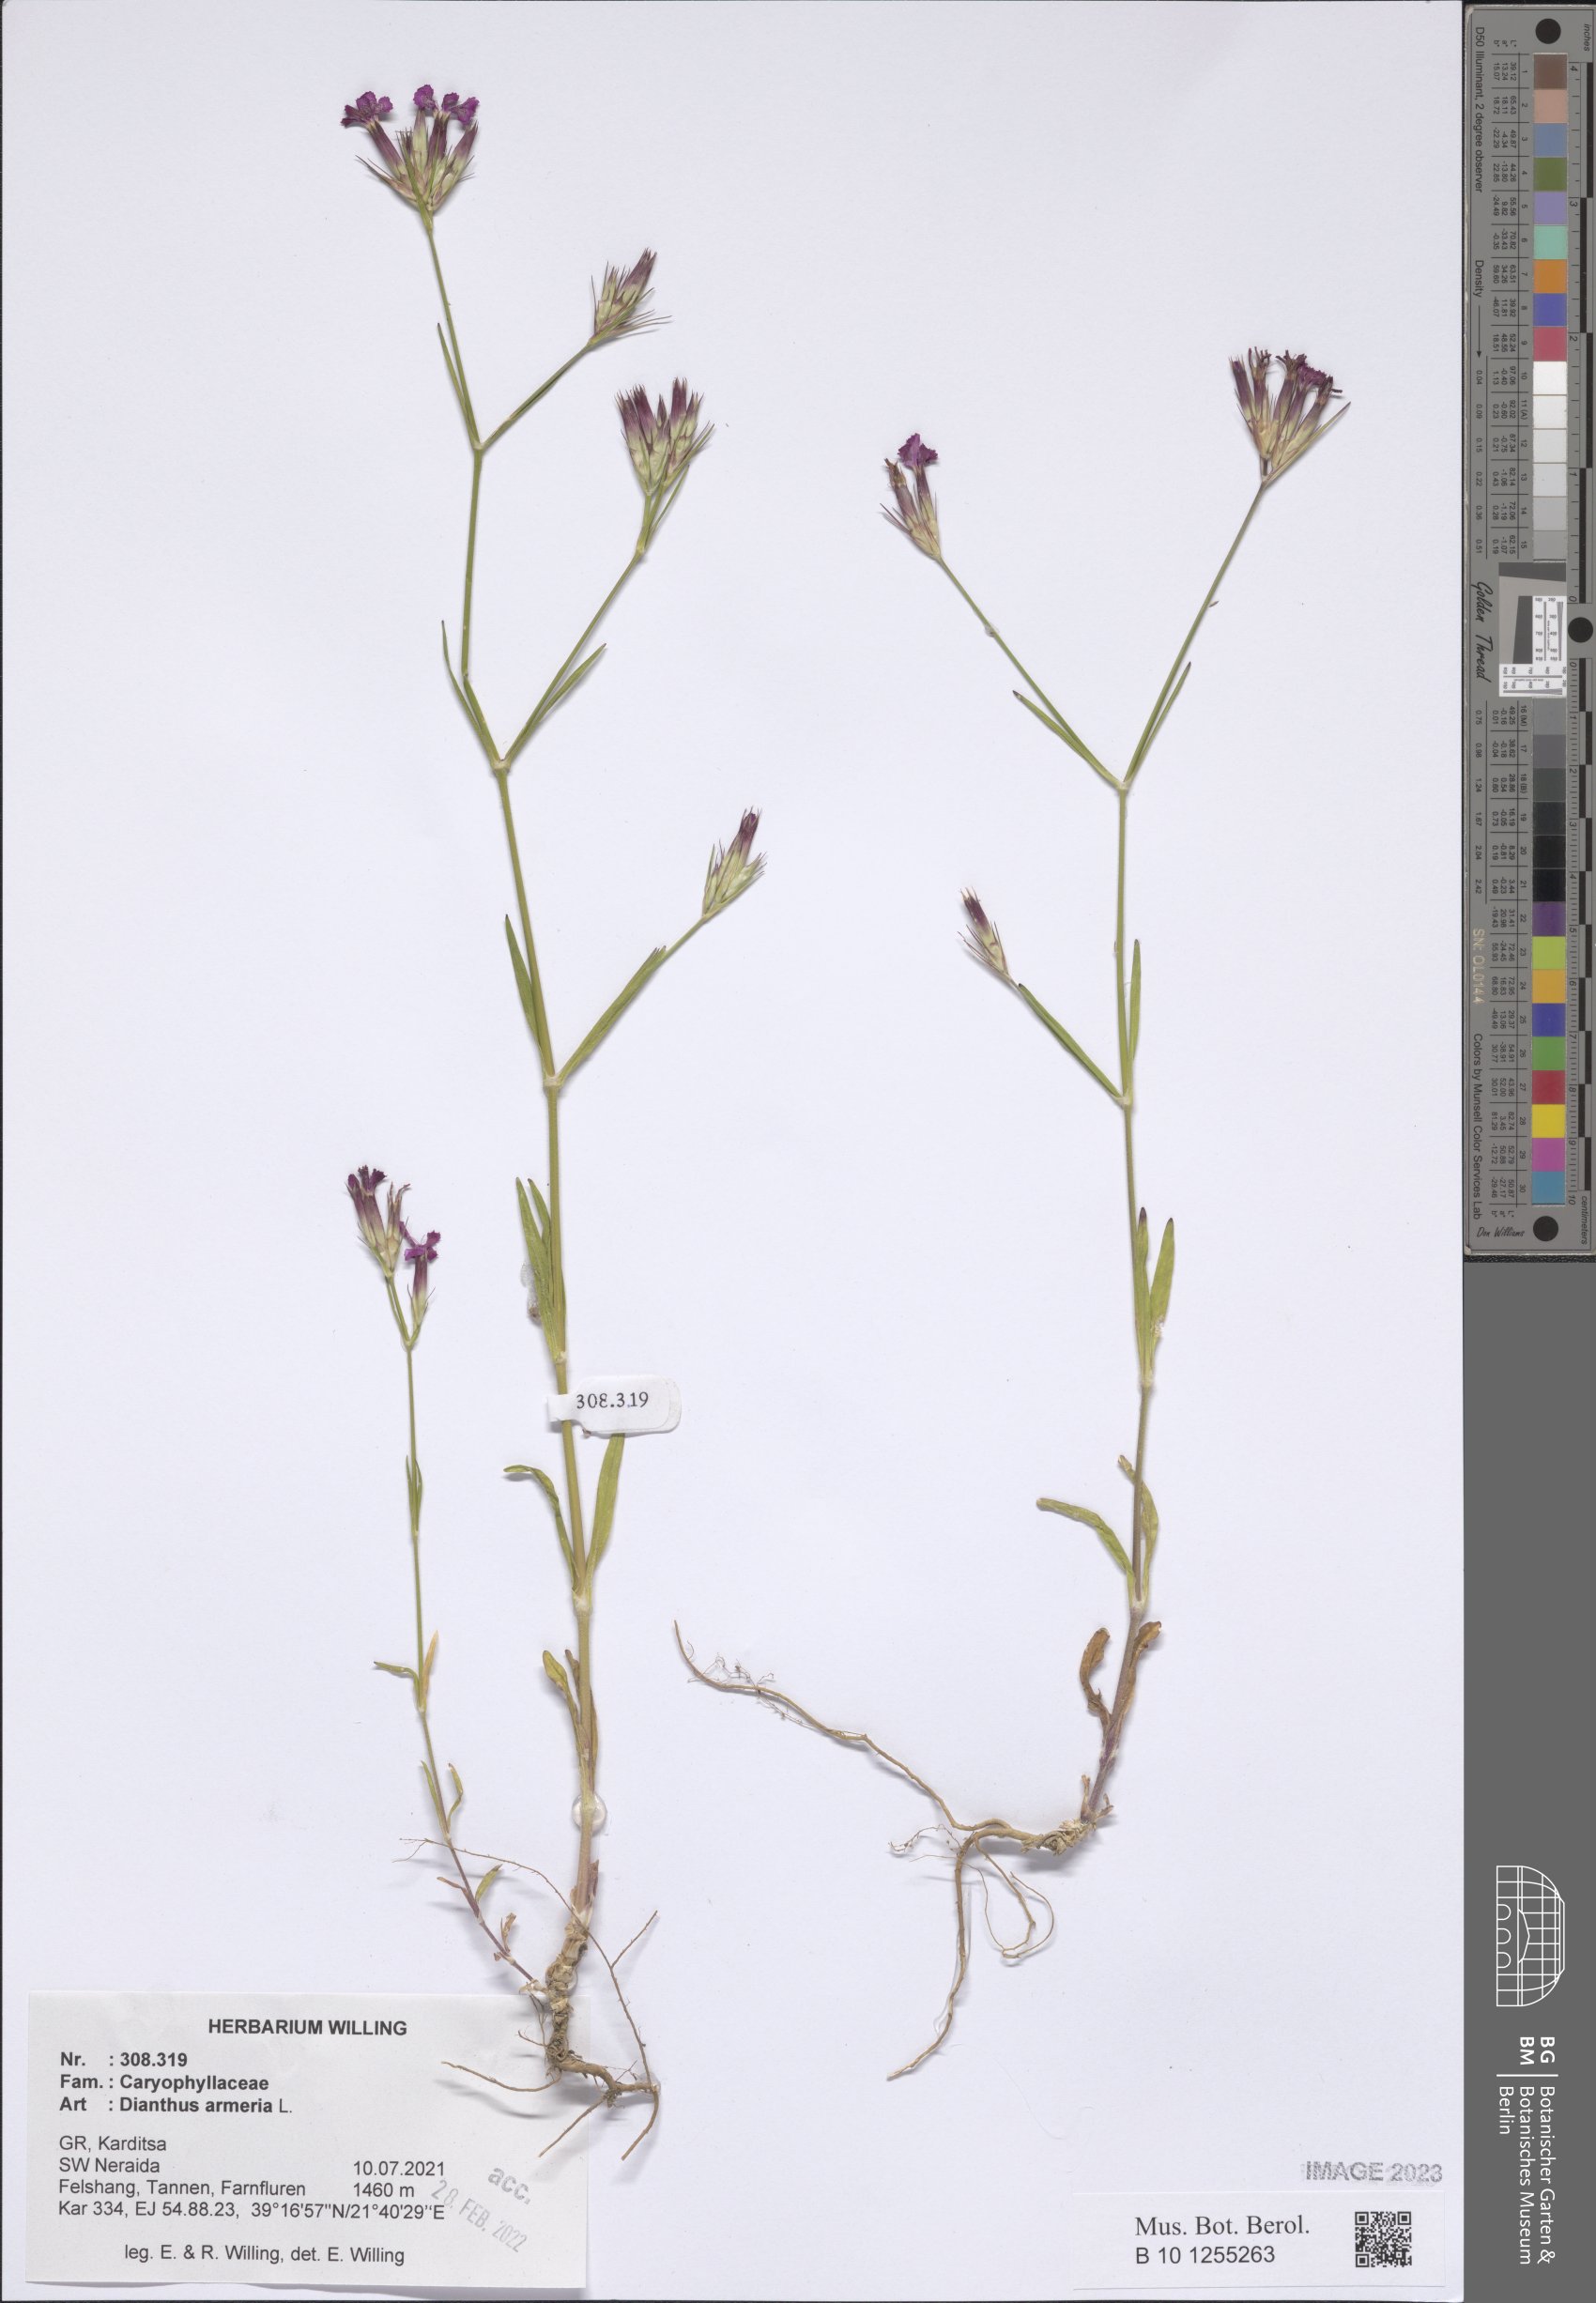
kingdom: Plantae
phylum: Tracheophyta
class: Magnoliopsida
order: Caryophyllales
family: Caryophyllaceae
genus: Dianthus
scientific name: Dianthus armeria
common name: Deptford pink
